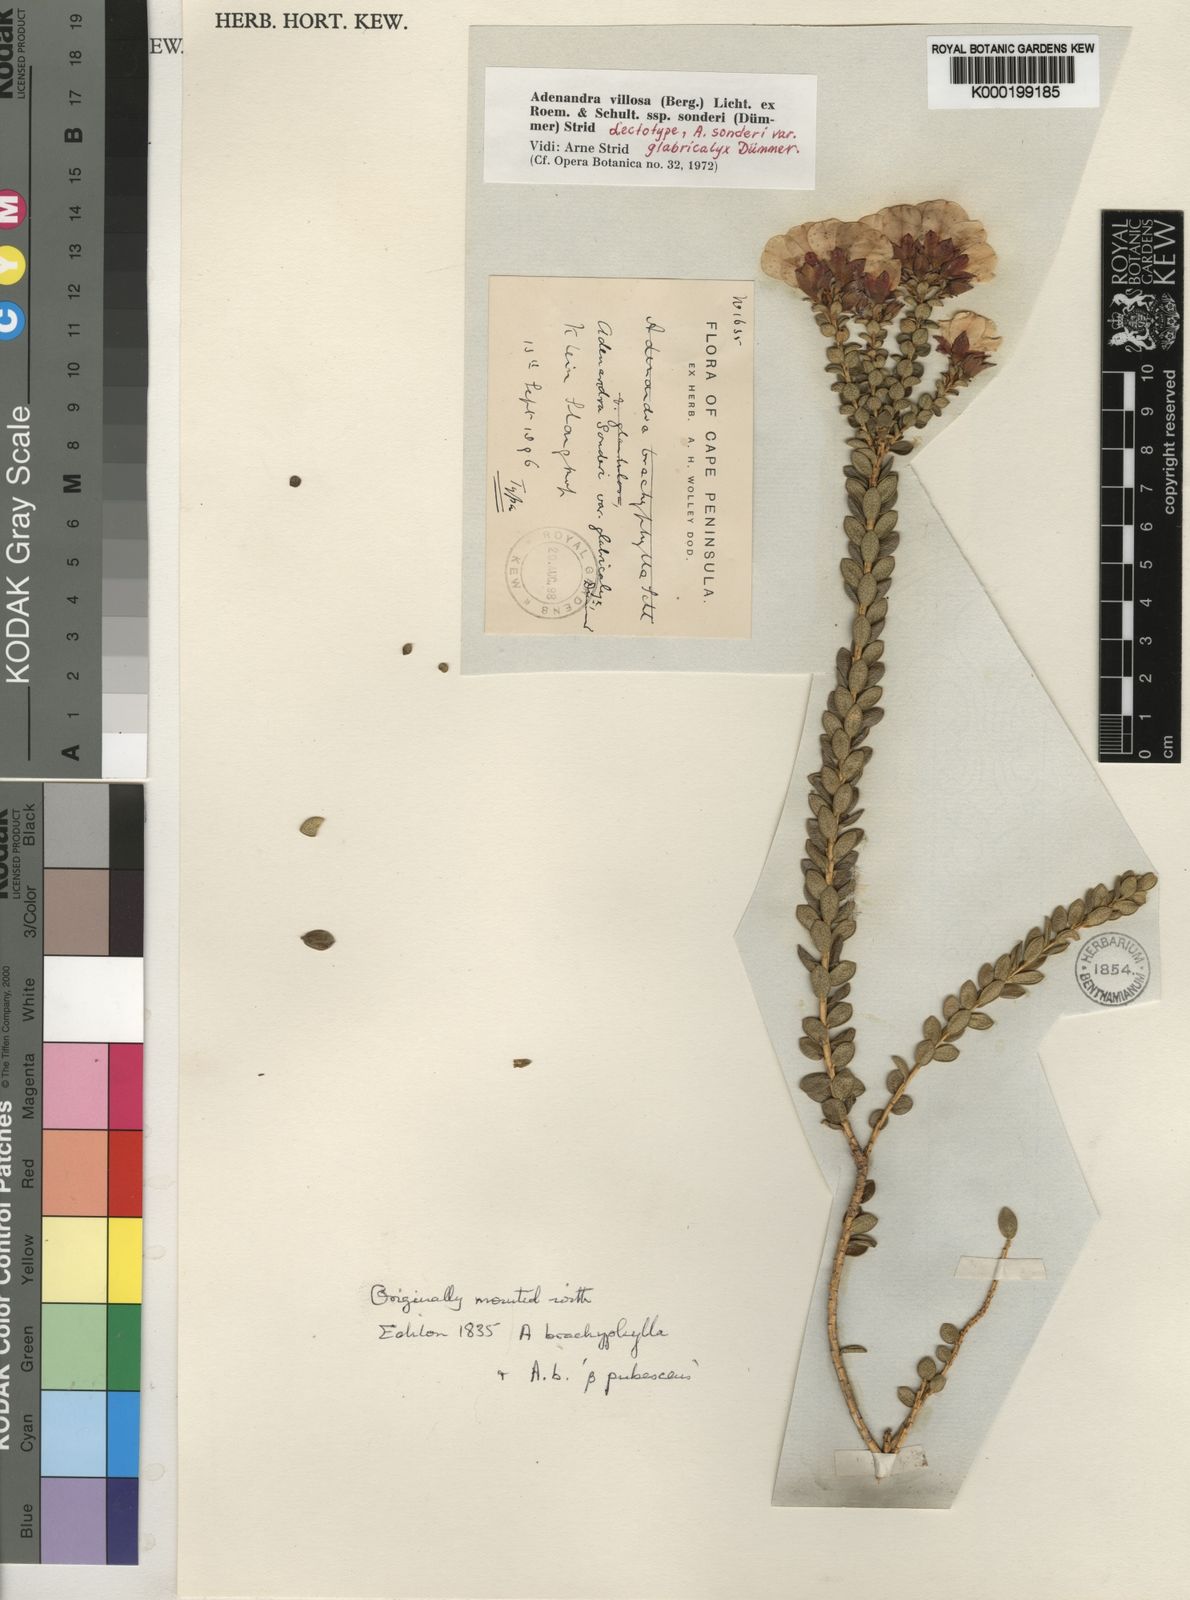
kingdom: Plantae
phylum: Tracheophyta
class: Magnoliopsida
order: Sapindales
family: Rutaceae
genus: Adenandra
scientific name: Adenandra villosa
